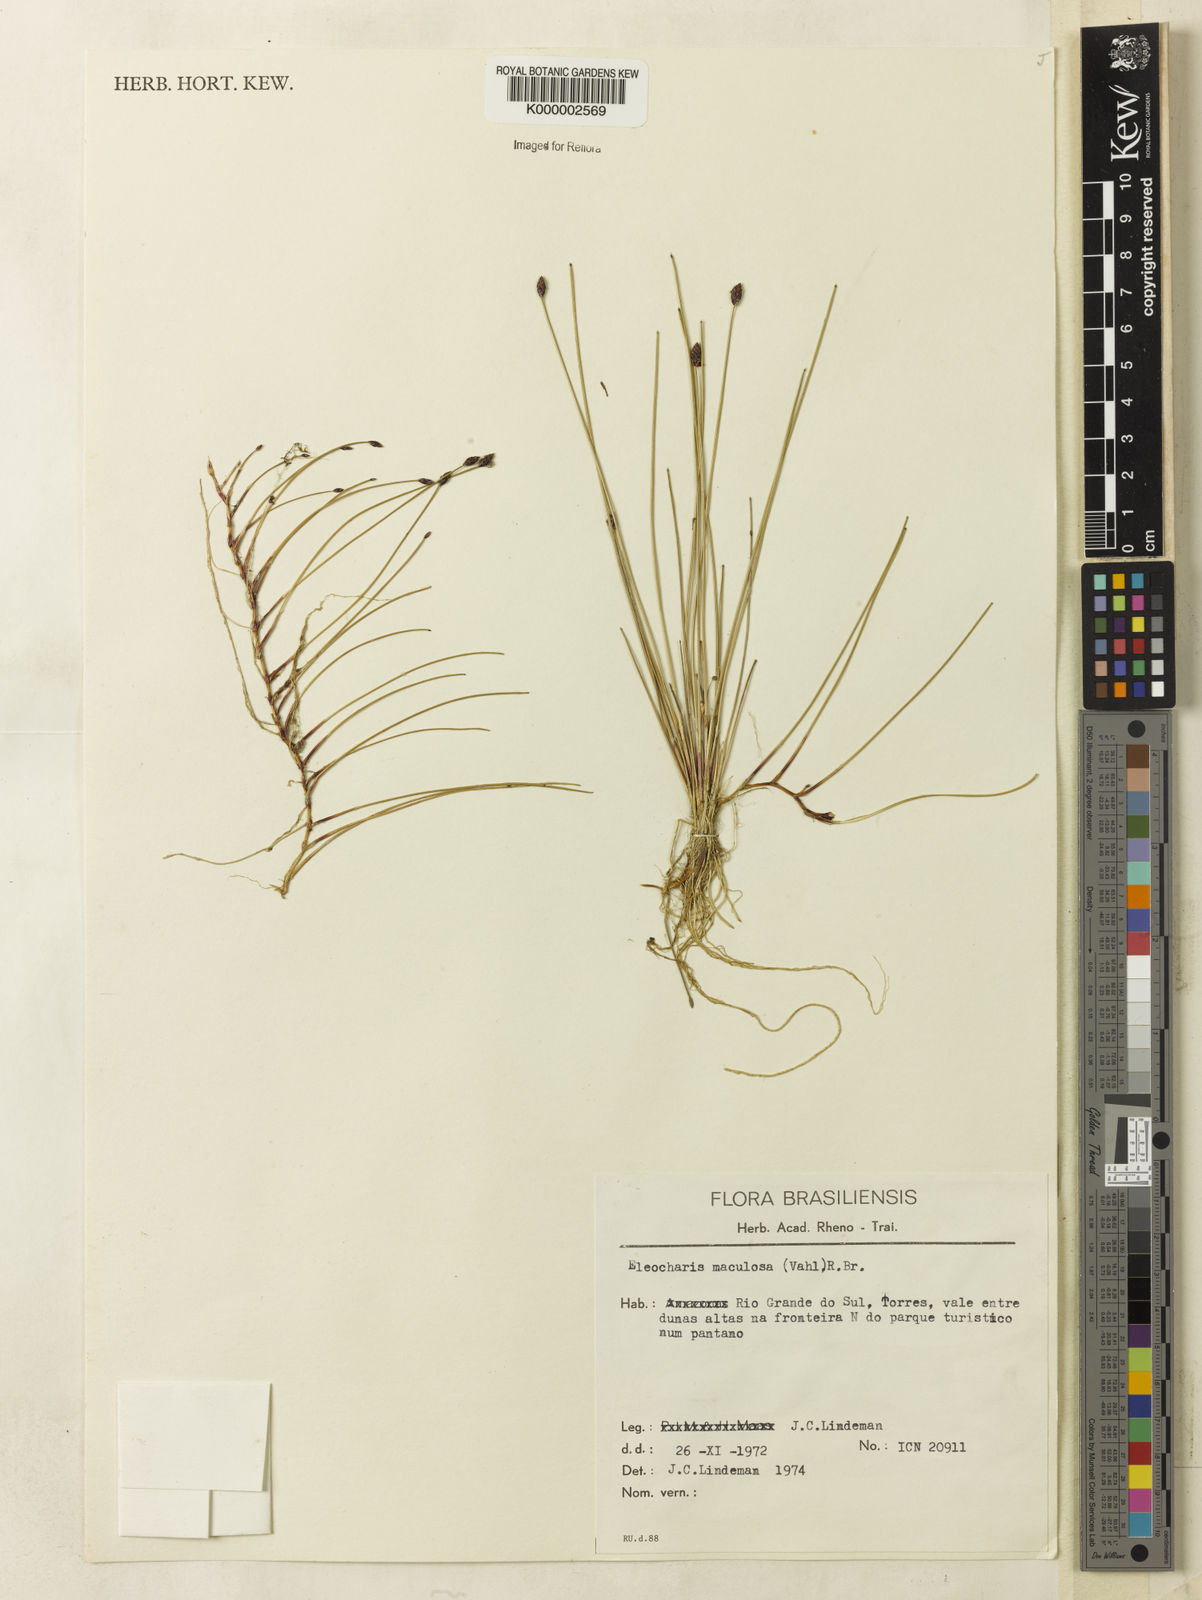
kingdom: Plantae
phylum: Tracheophyta
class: Liliopsida
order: Poales
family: Cyperaceae
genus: Eleocharis
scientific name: Eleocharis maculosa
